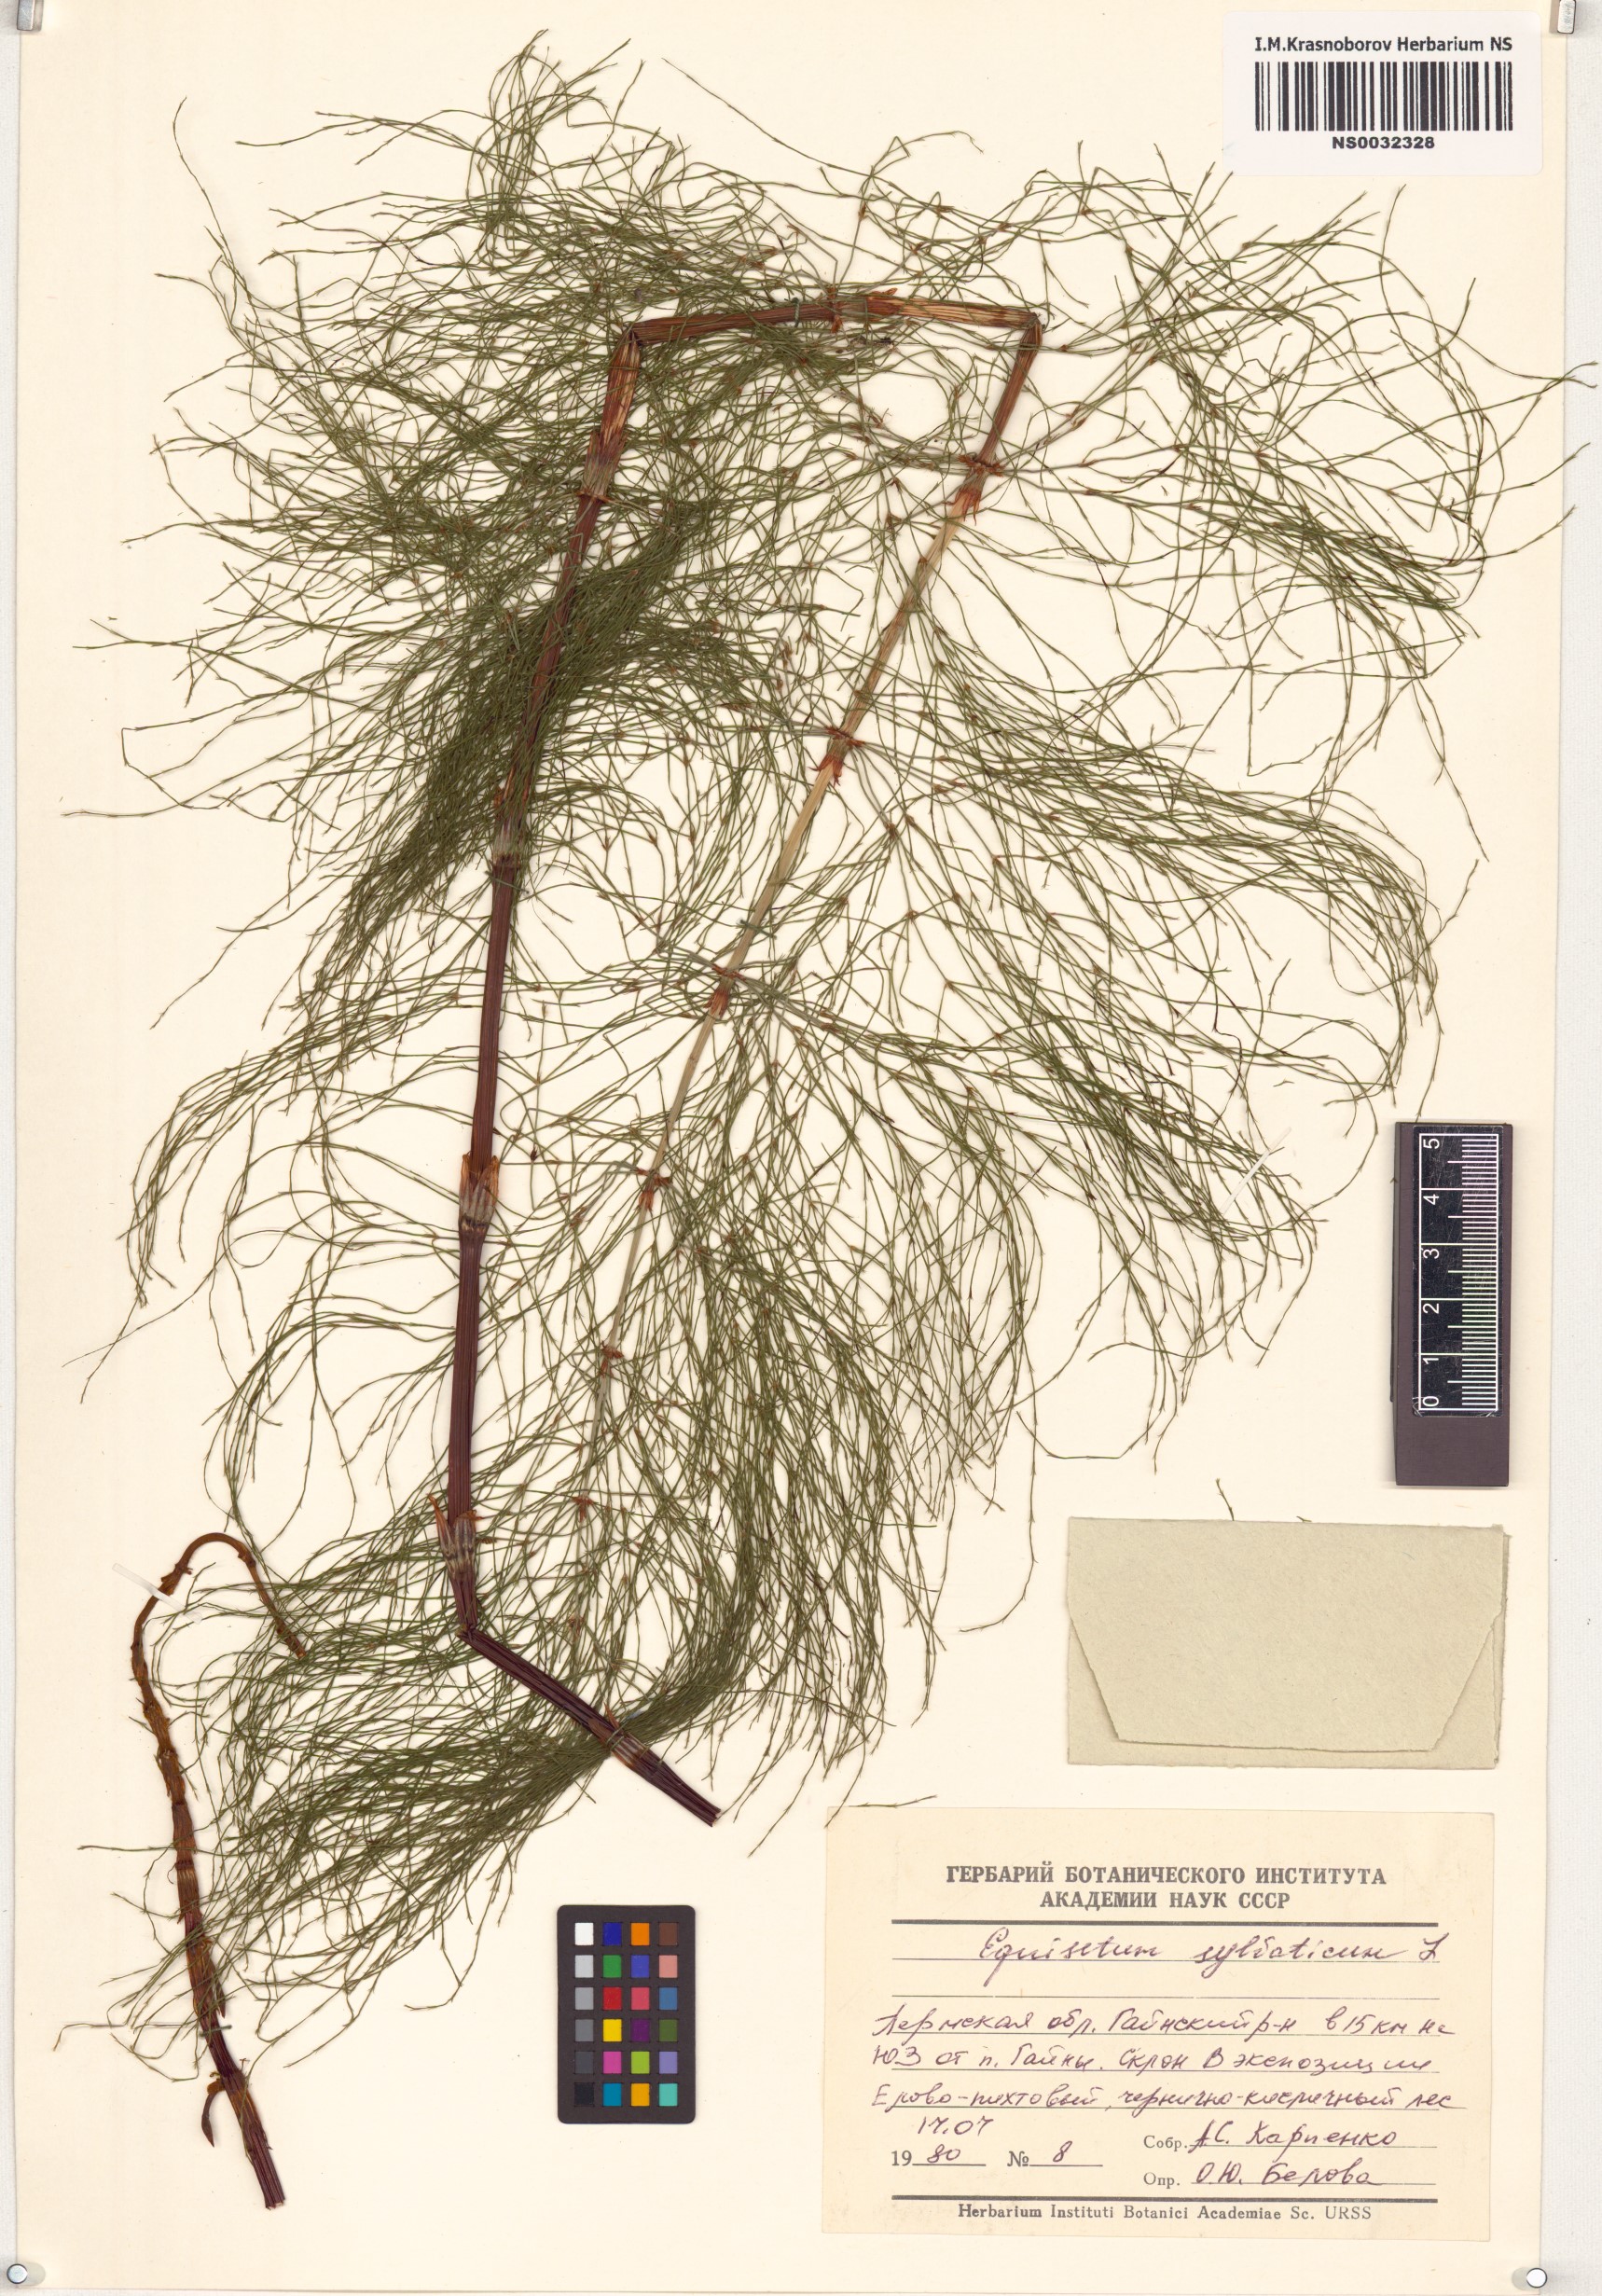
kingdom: Plantae
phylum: Tracheophyta
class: Polypodiopsida
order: Equisetales
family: Equisetaceae
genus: Equisetum
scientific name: Equisetum sylvaticum
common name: Wood horsetail
